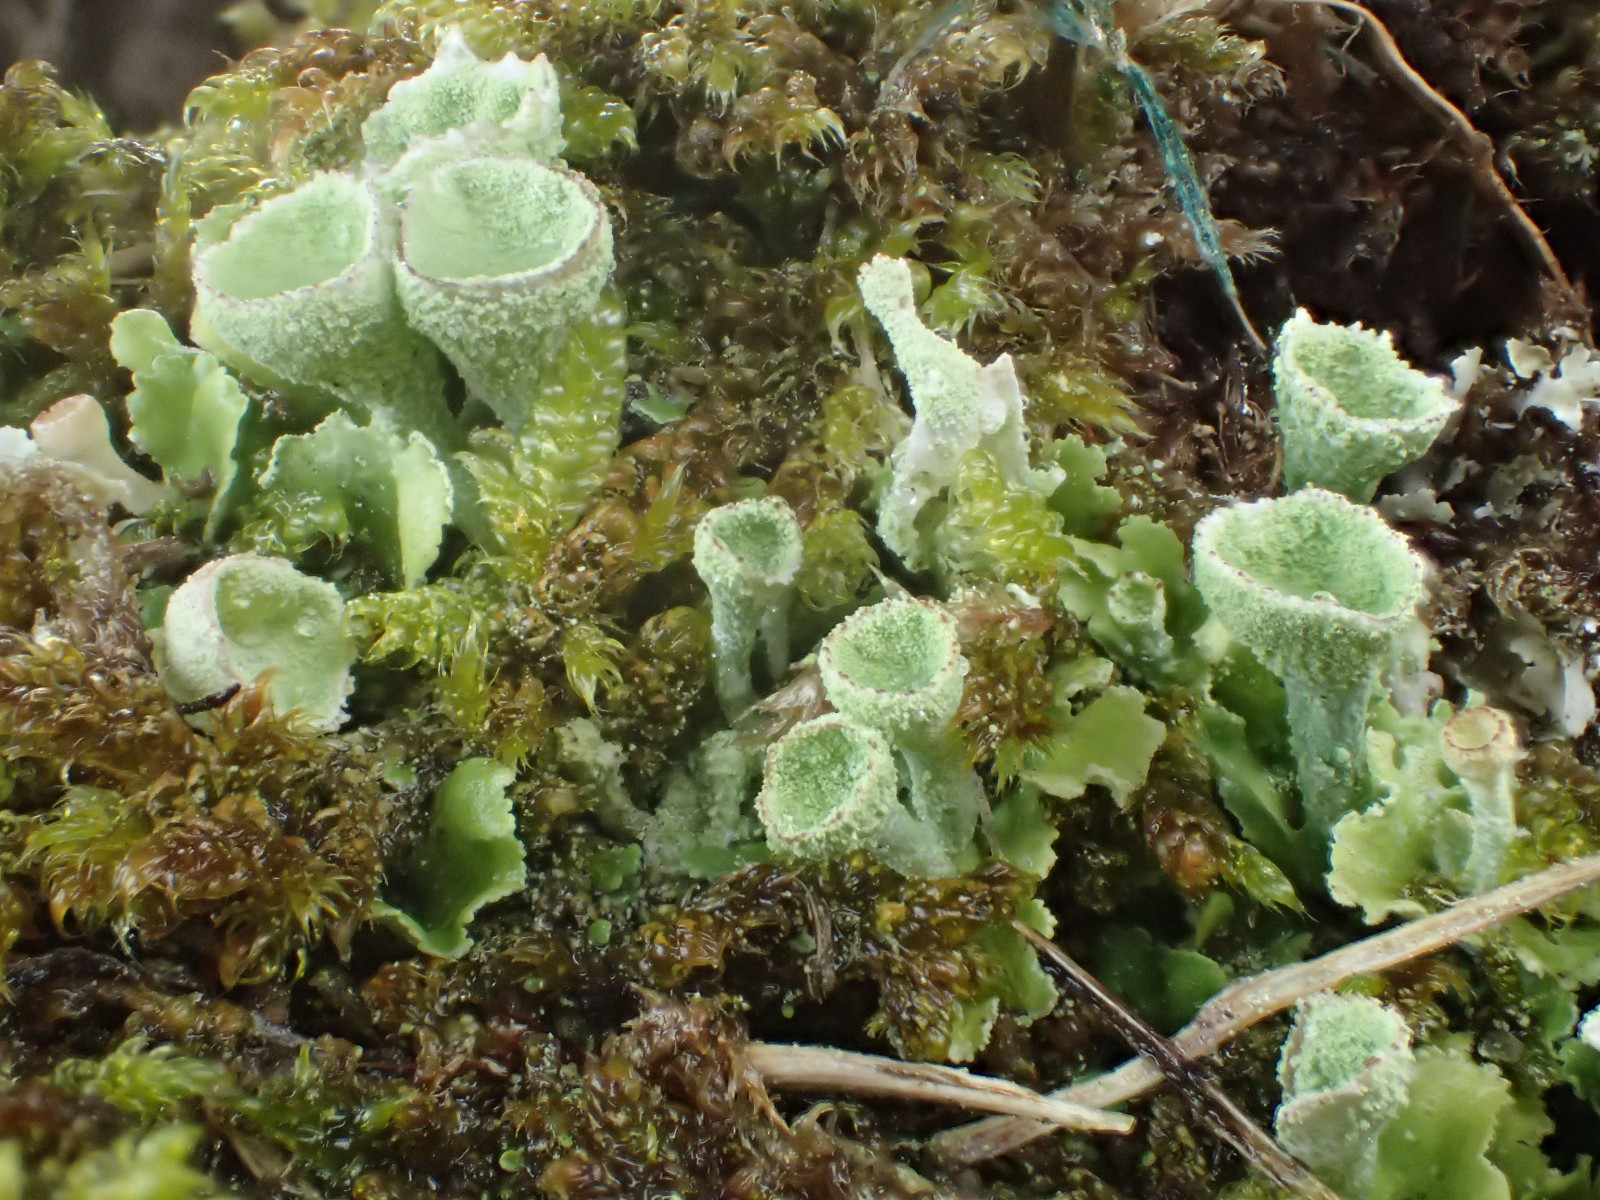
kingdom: Fungi
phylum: Ascomycota
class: Lecanoromycetes
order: Lecanorales
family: Cladoniaceae
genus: Cladonia
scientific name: Cladonia humilis
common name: lav bægerlav
